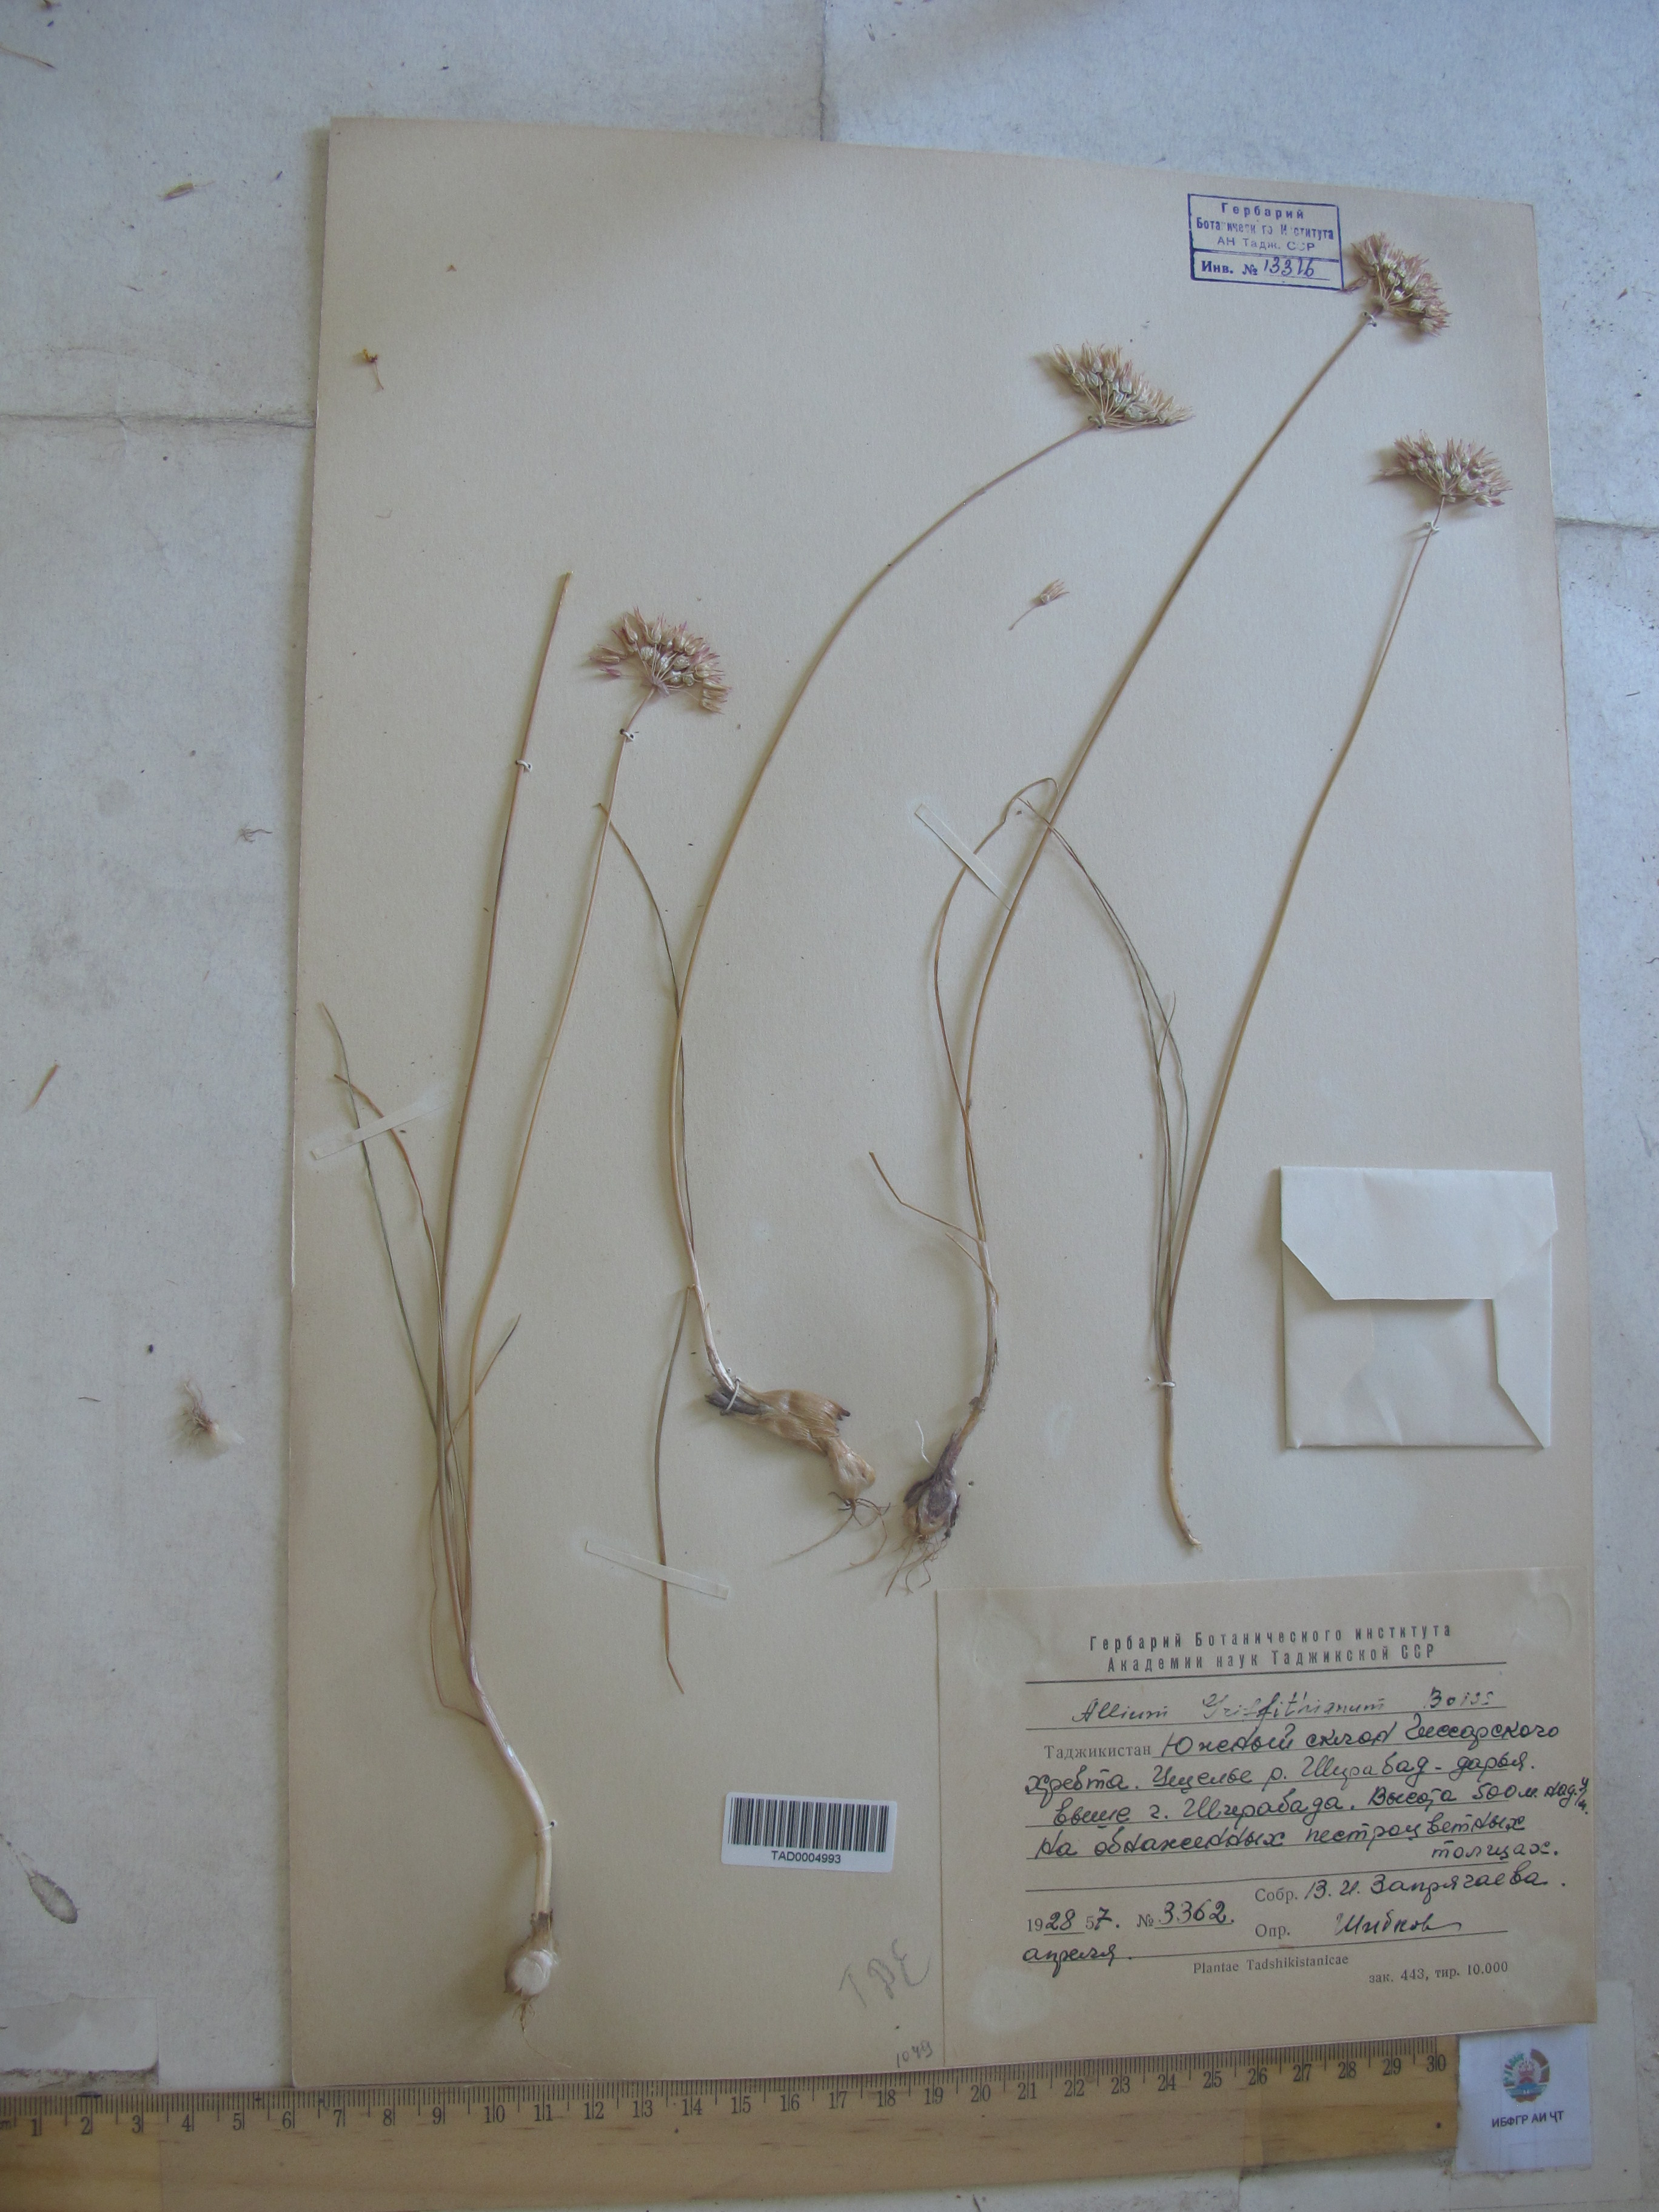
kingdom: Plantae
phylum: Tracheophyta
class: Liliopsida
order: Asparagales
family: Amaryllidaceae
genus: Allium
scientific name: Allium griffithianum
